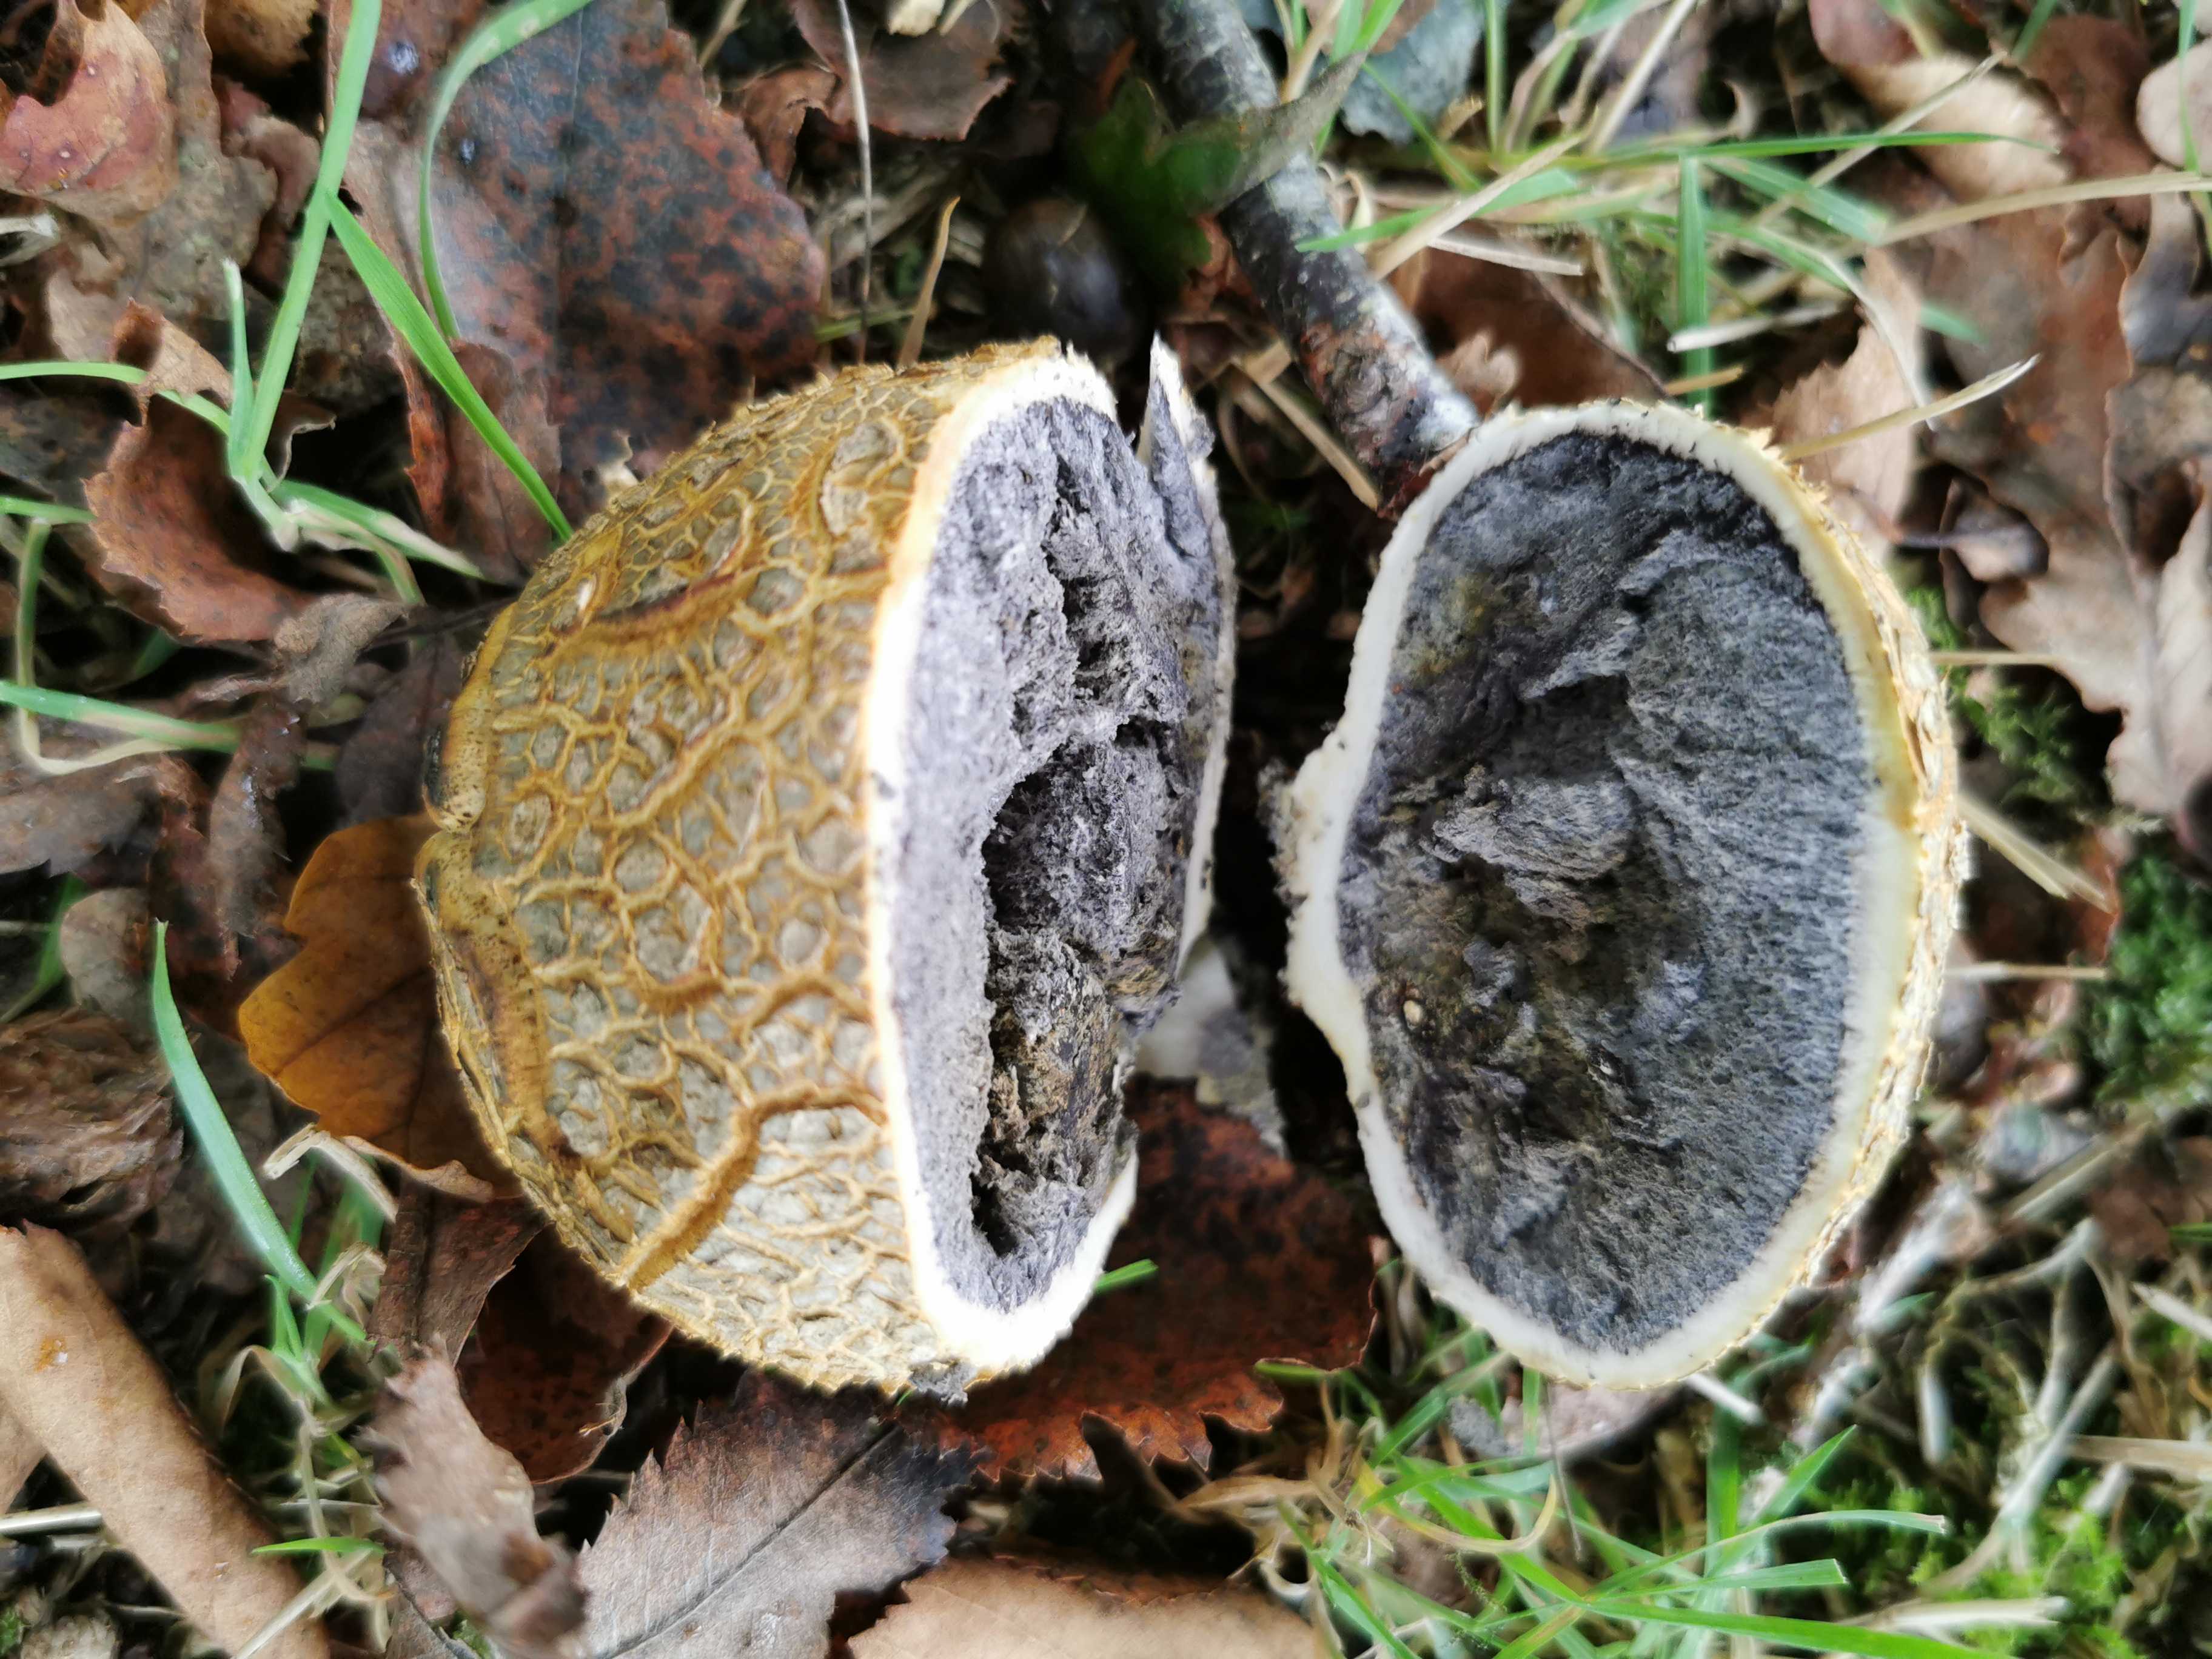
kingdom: Fungi
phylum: Basidiomycota
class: Agaricomycetes
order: Boletales
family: Sclerodermataceae
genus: Scleroderma
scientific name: Scleroderma citrinum
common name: almindelig bruskbold
